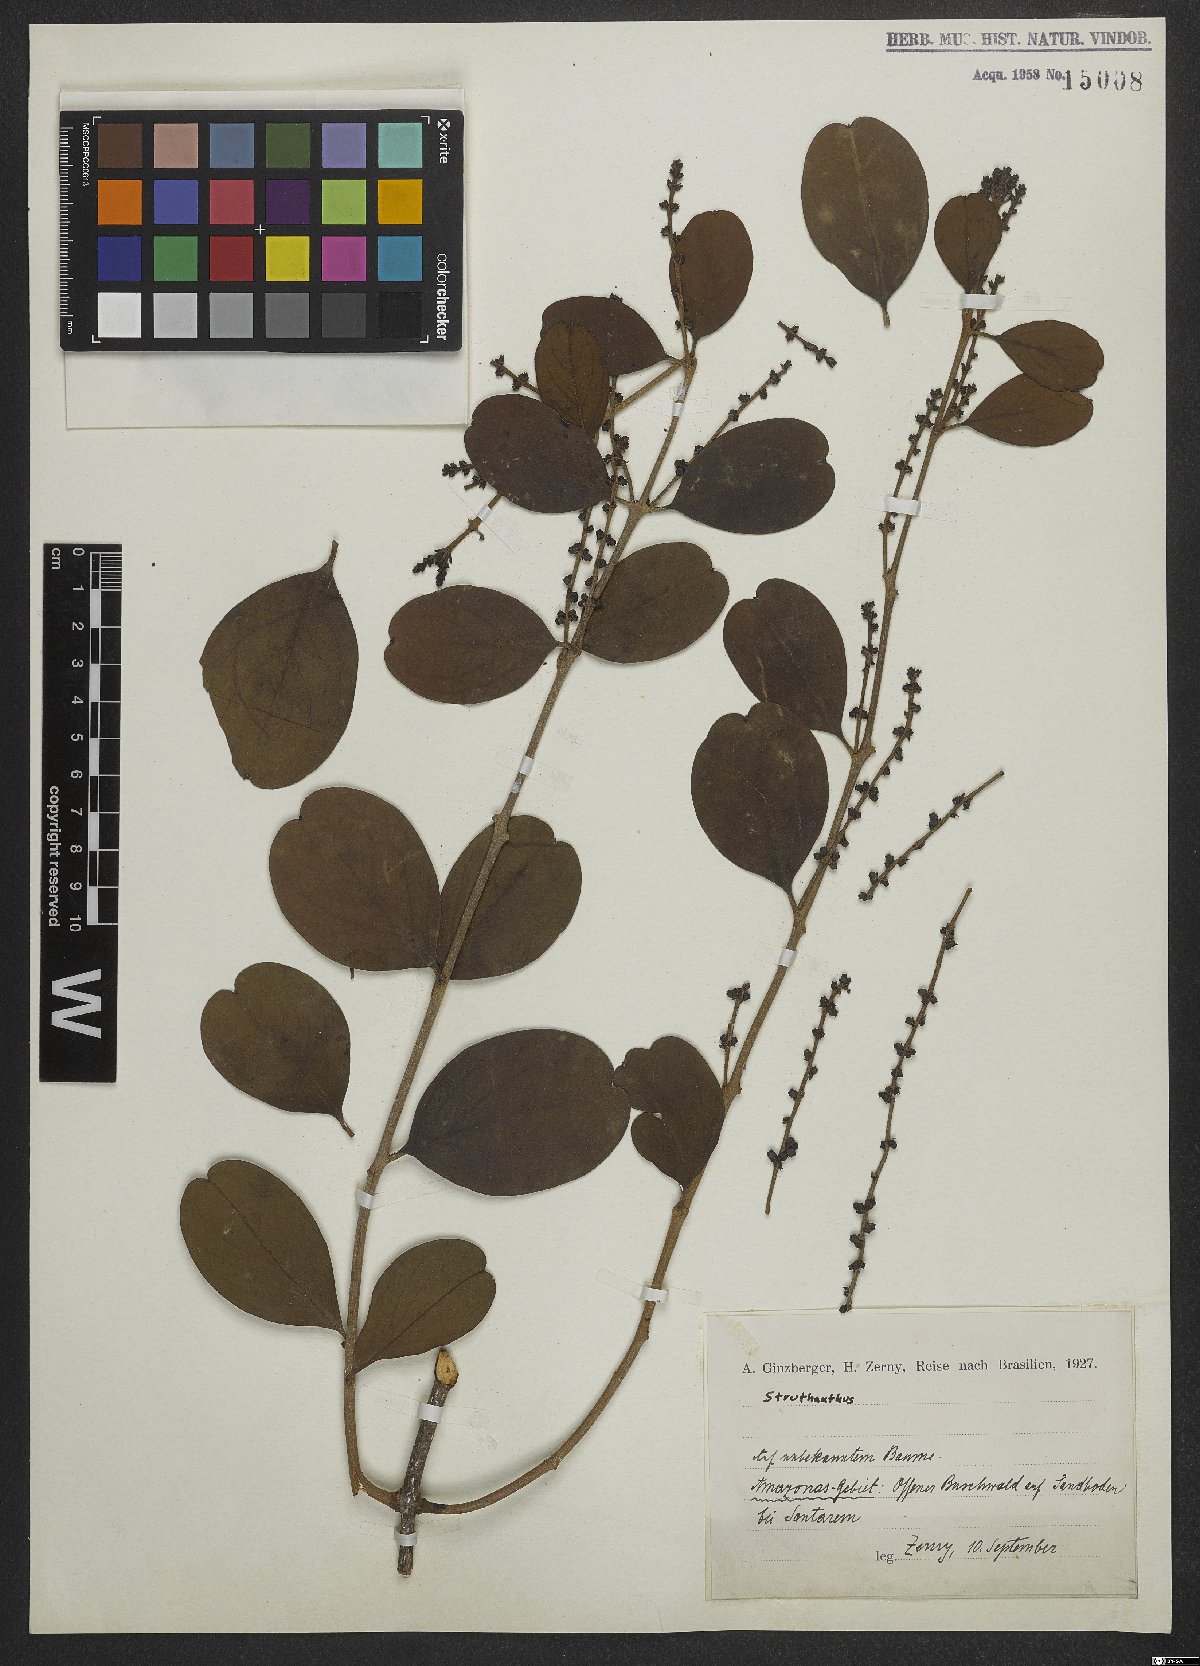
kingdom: Plantae
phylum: Tracheophyta
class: Magnoliopsida
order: Santalales
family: Loranthaceae
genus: Struthanthus
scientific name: Struthanthus
